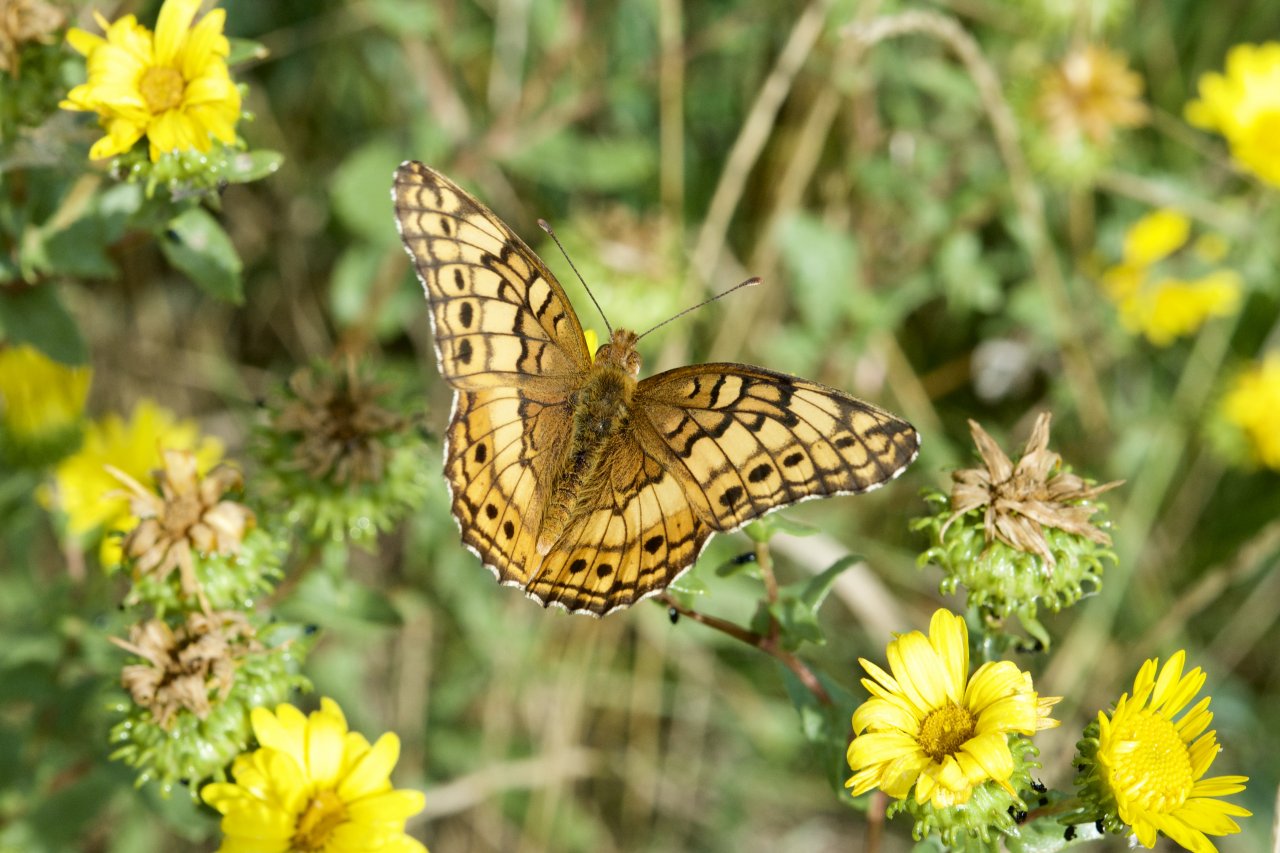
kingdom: Animalia
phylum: Arthropoda
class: Insecta
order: Lepidoptera
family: Nymphalidae
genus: Euptoieta
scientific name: Euptoieta claudia
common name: Variegated Fritillary
